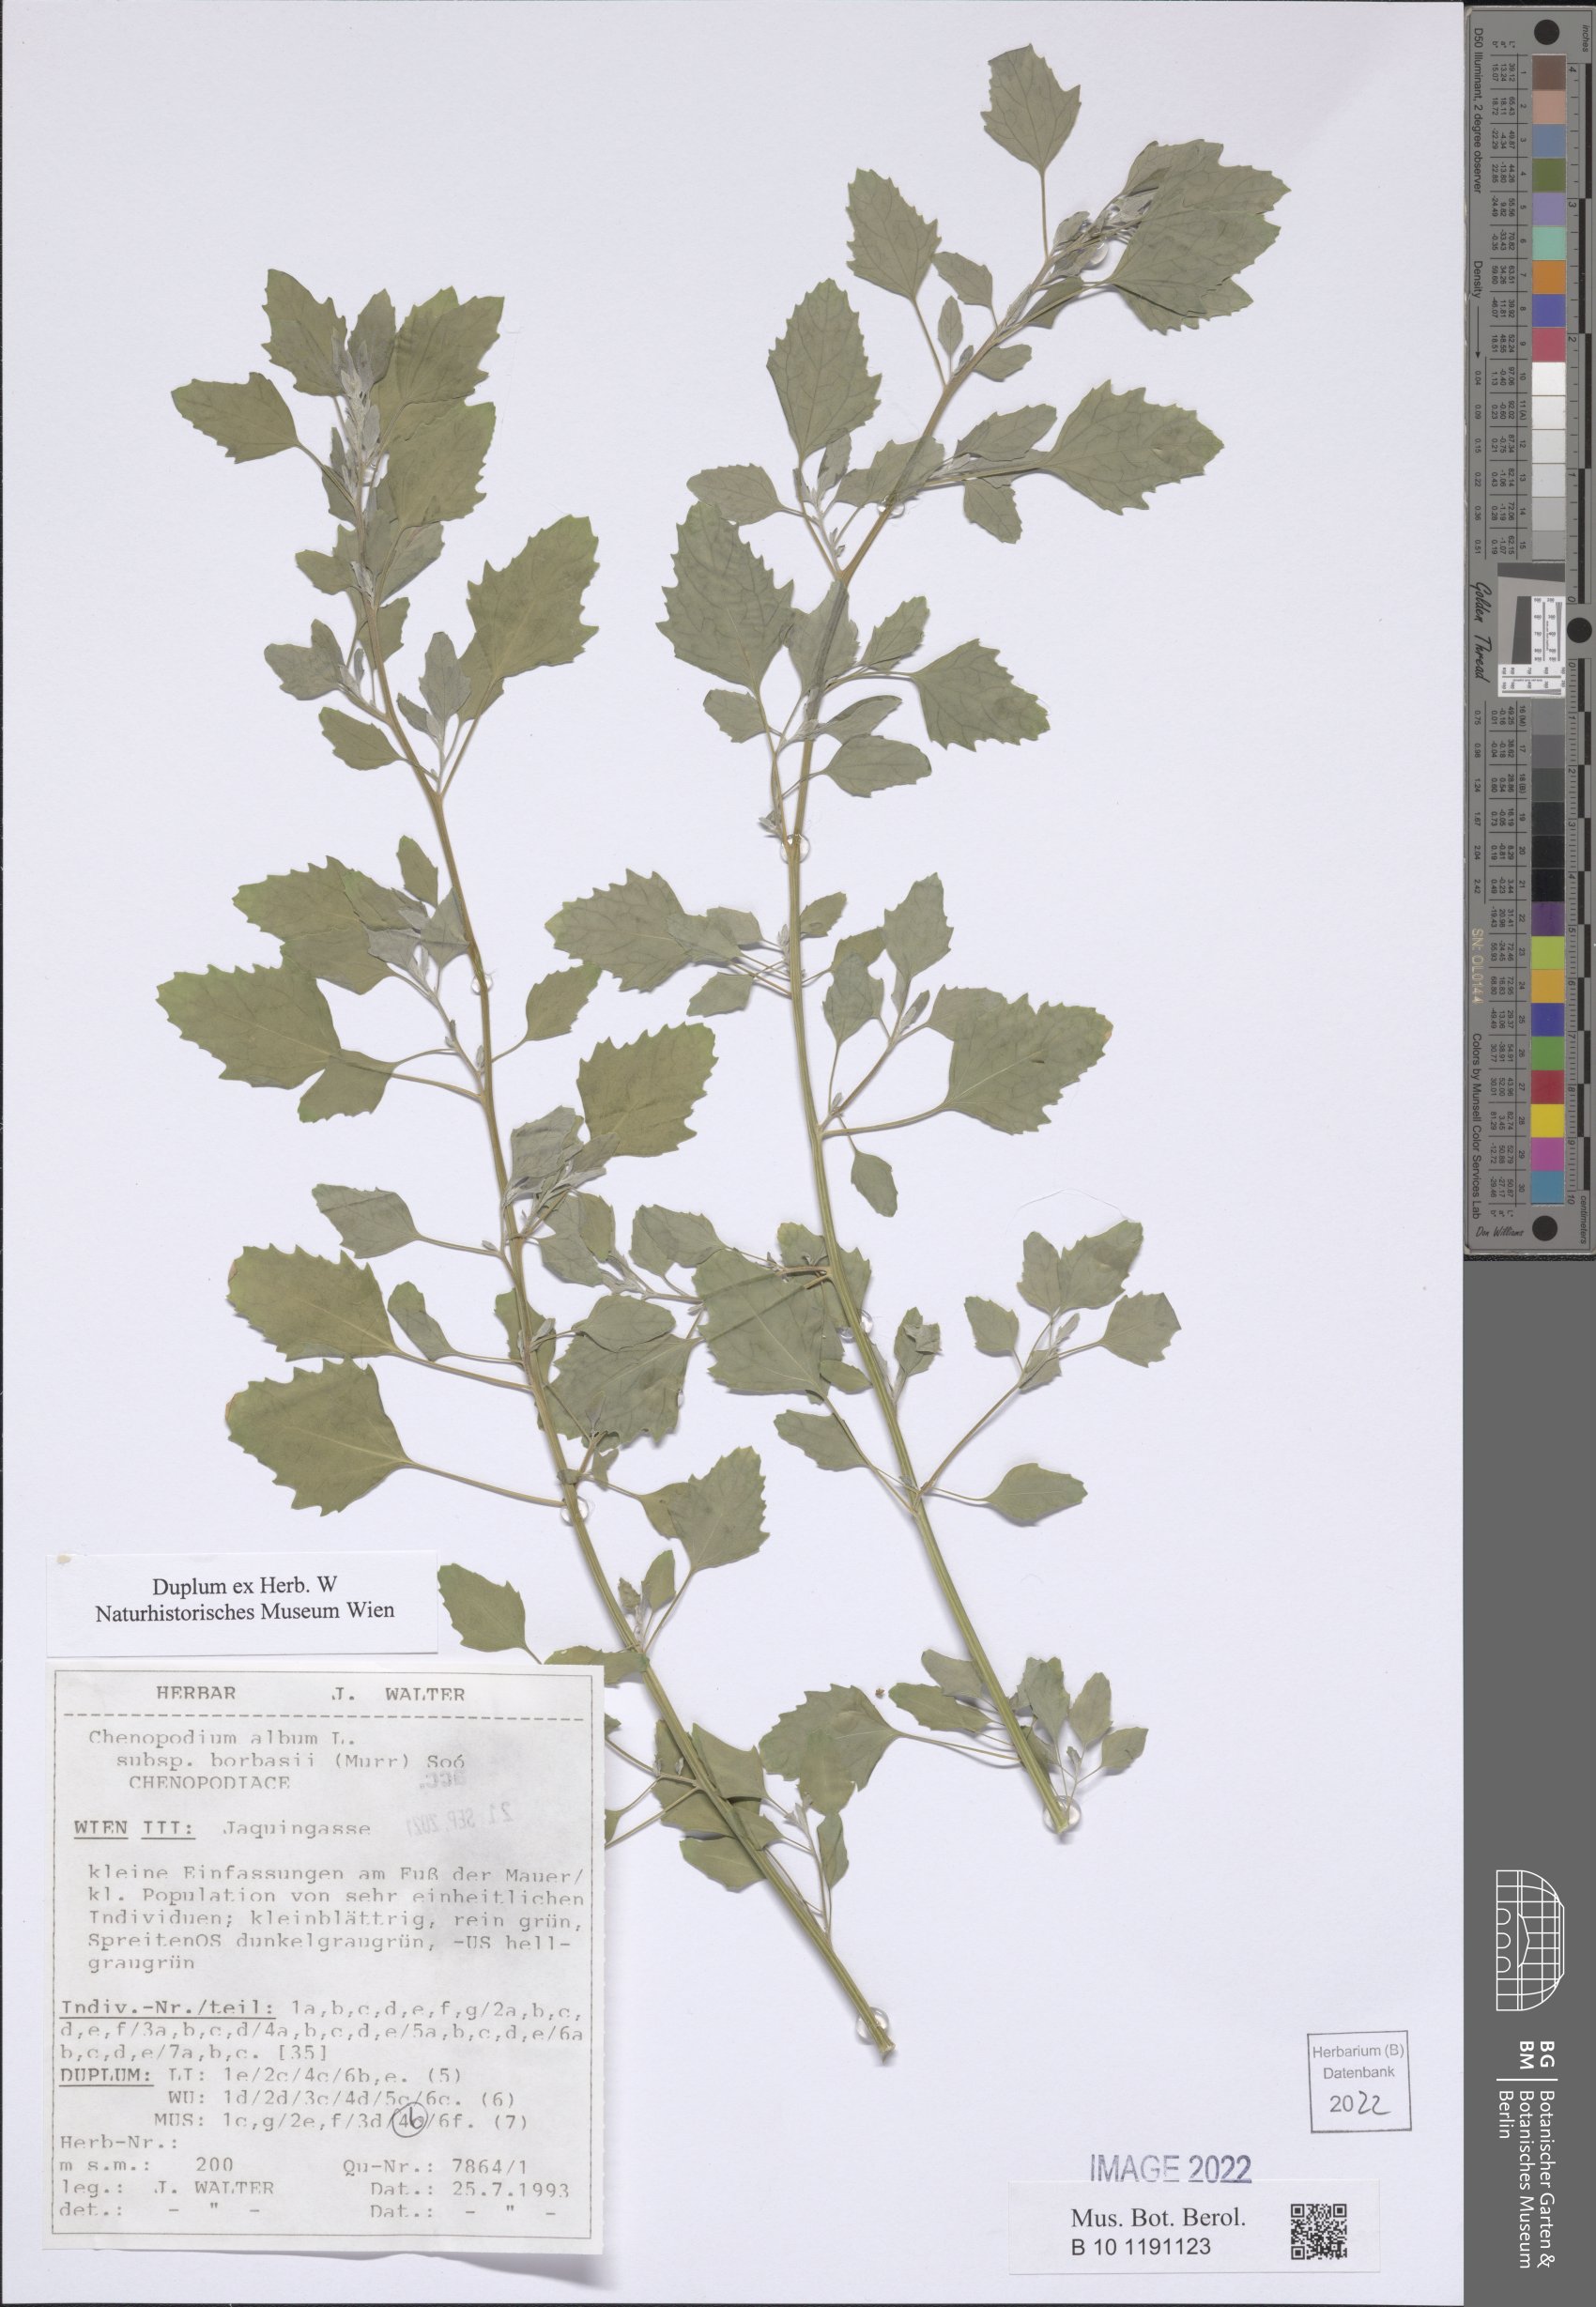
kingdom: Plantae
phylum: Tracheophyta
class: Magnoliopsida
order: Caryophyllales
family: Amaranthaceae
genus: Chenopodium
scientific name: Chenopodium borbasii
